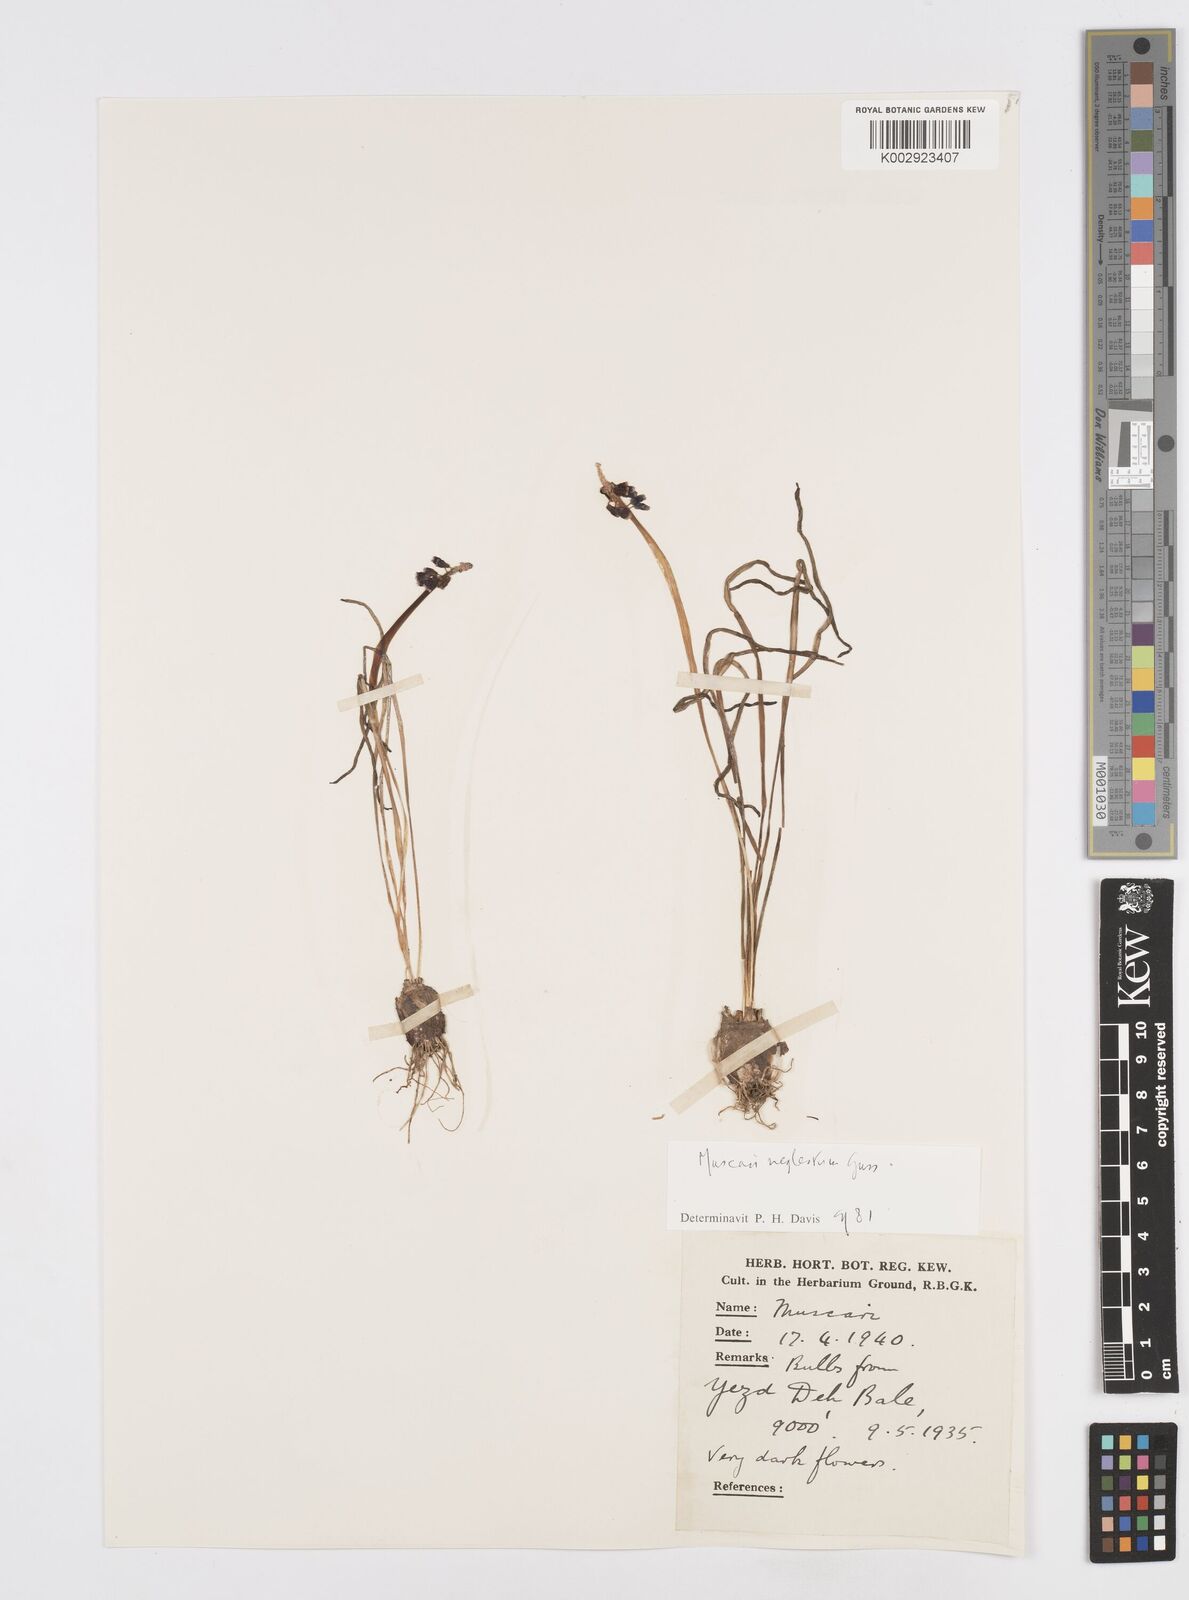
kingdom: Plantae
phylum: Tracheophyta
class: Liliopsida
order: Asparagales
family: Asparagaceae
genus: Muscari
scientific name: Muscari neglectum
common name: Grape-hyacinth
